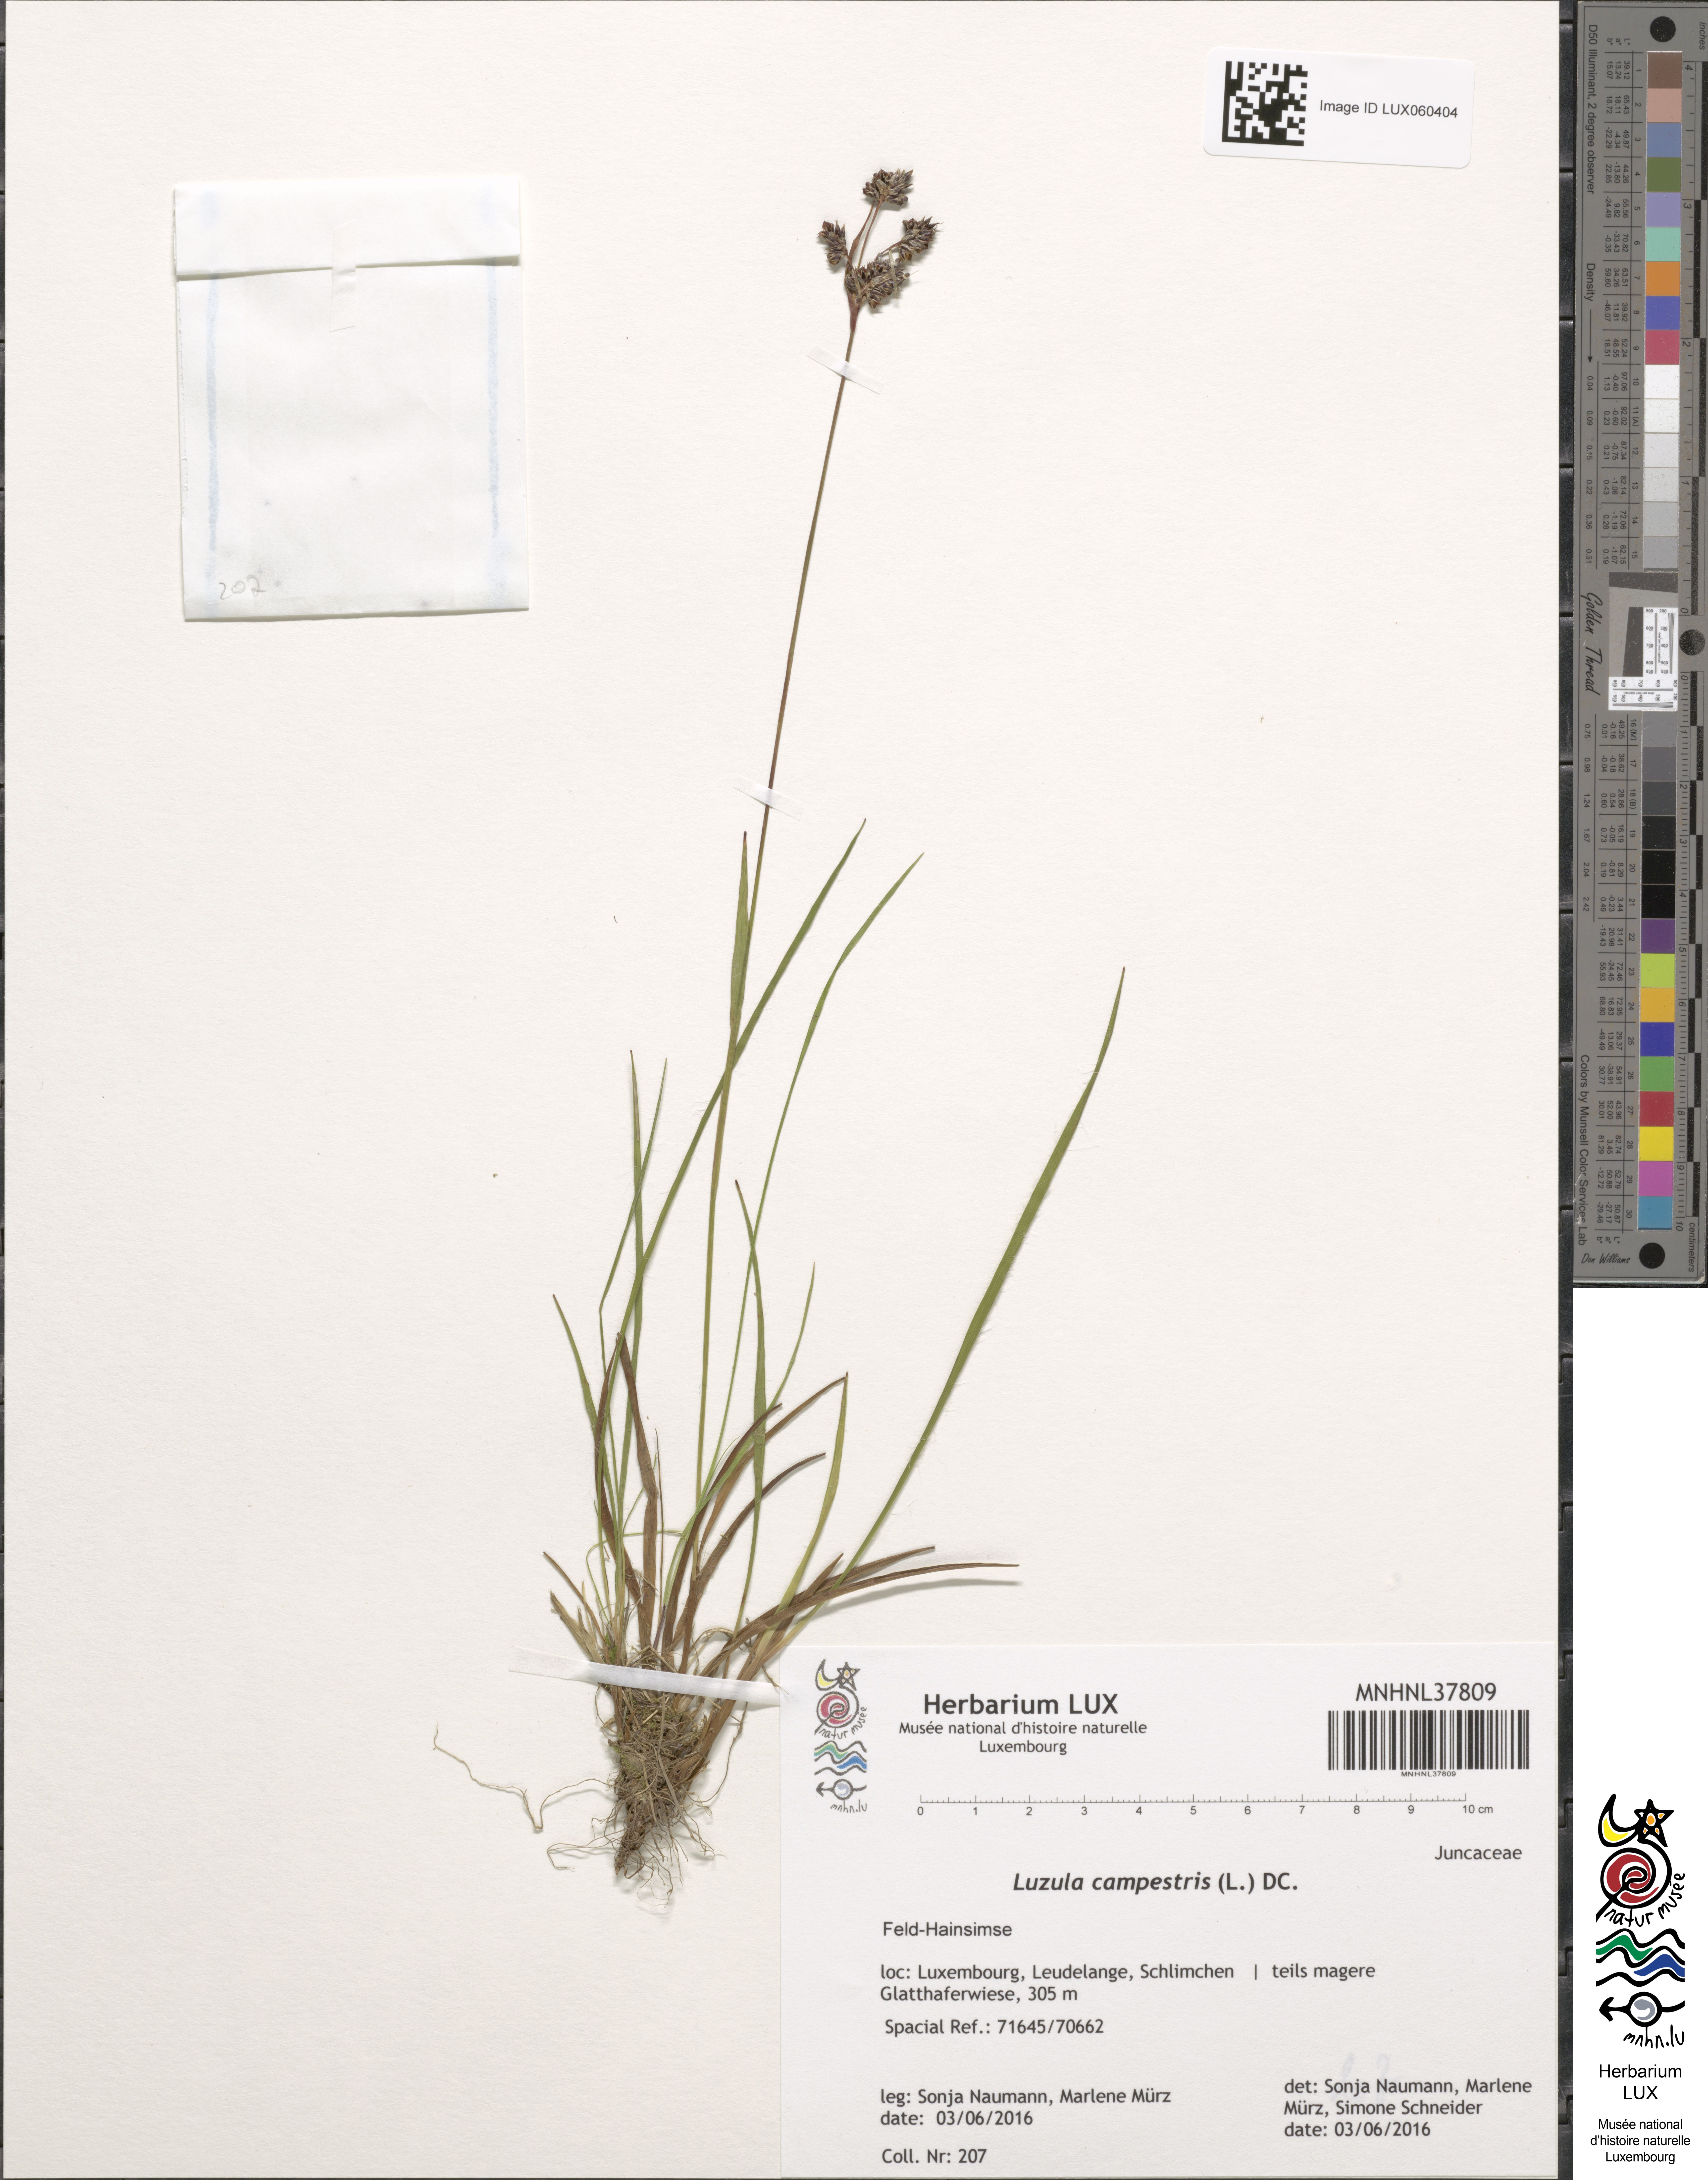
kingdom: Plantae
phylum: Tracheophyta
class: Liliopsida
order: Poales
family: Juncaceae
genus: Luzula
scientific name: Luzula campestris
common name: Field wood-rush
